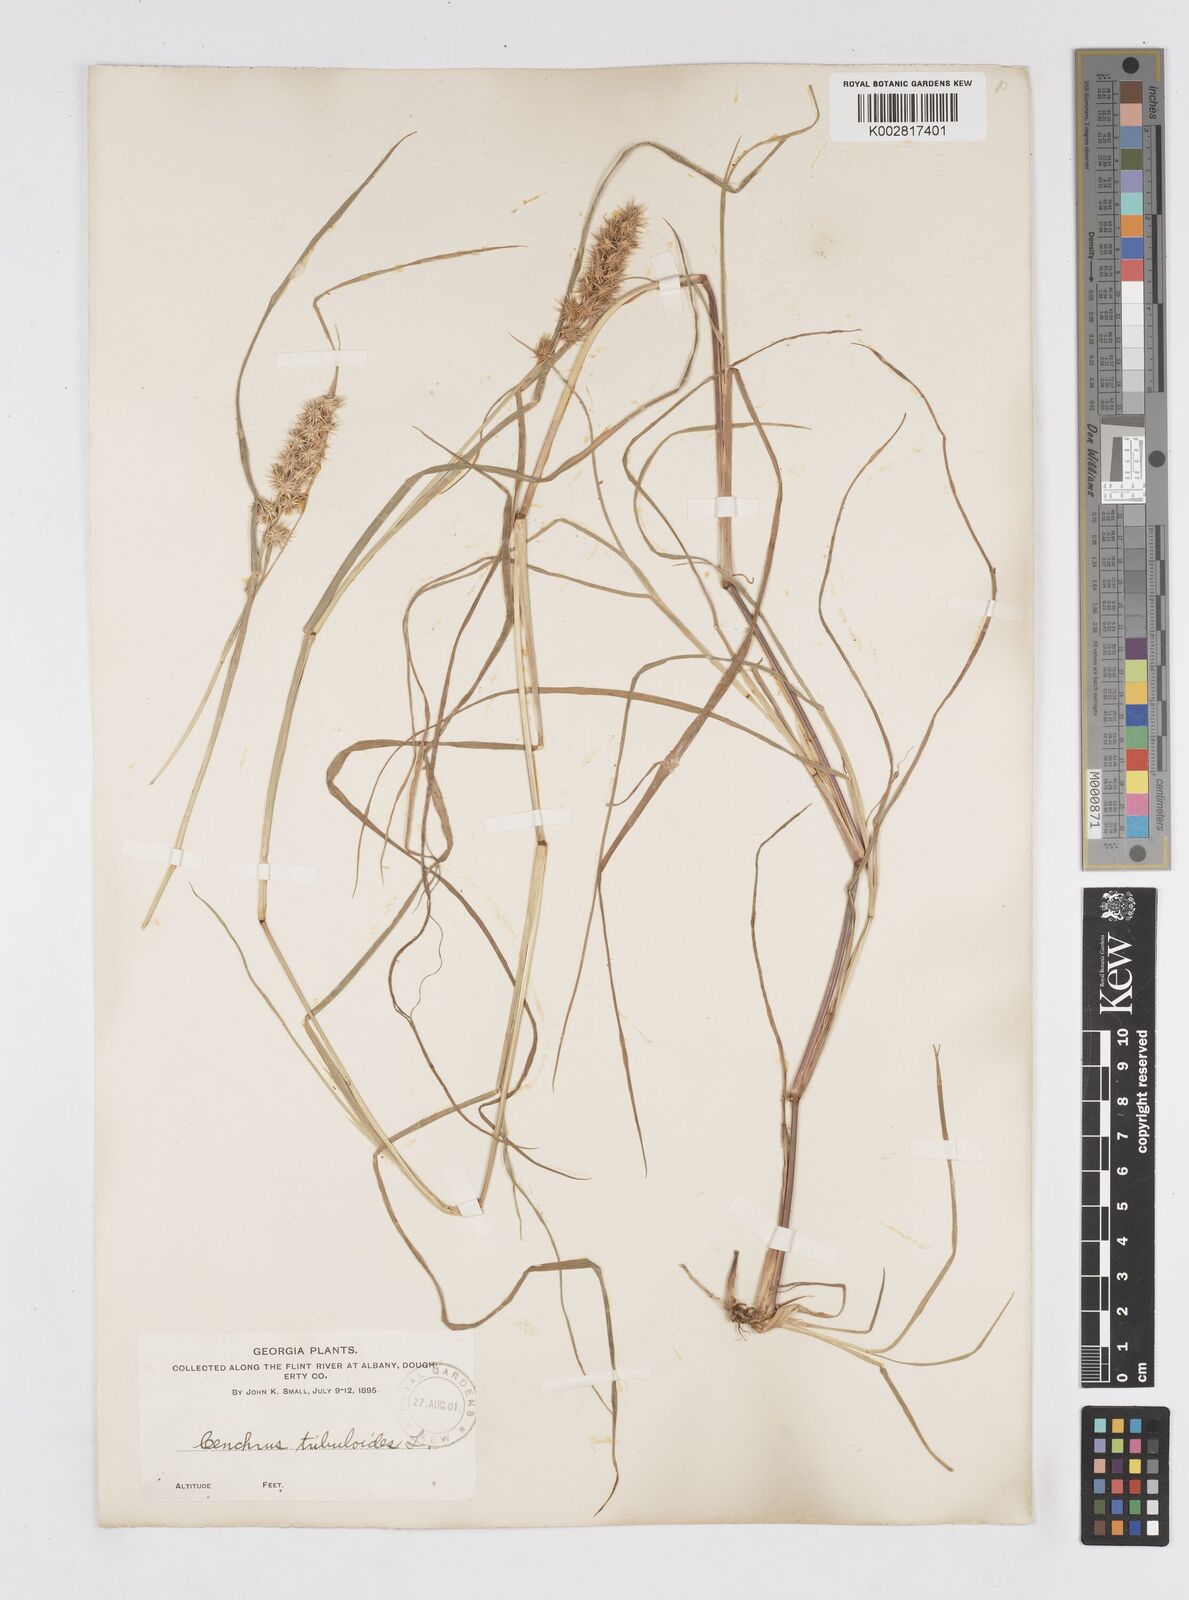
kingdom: Plantae
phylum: Tracheophyta
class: Liliopsida
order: Poales
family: Poaceae
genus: Cenchrus
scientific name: Cenchrus longispinus
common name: Mat sandbur
